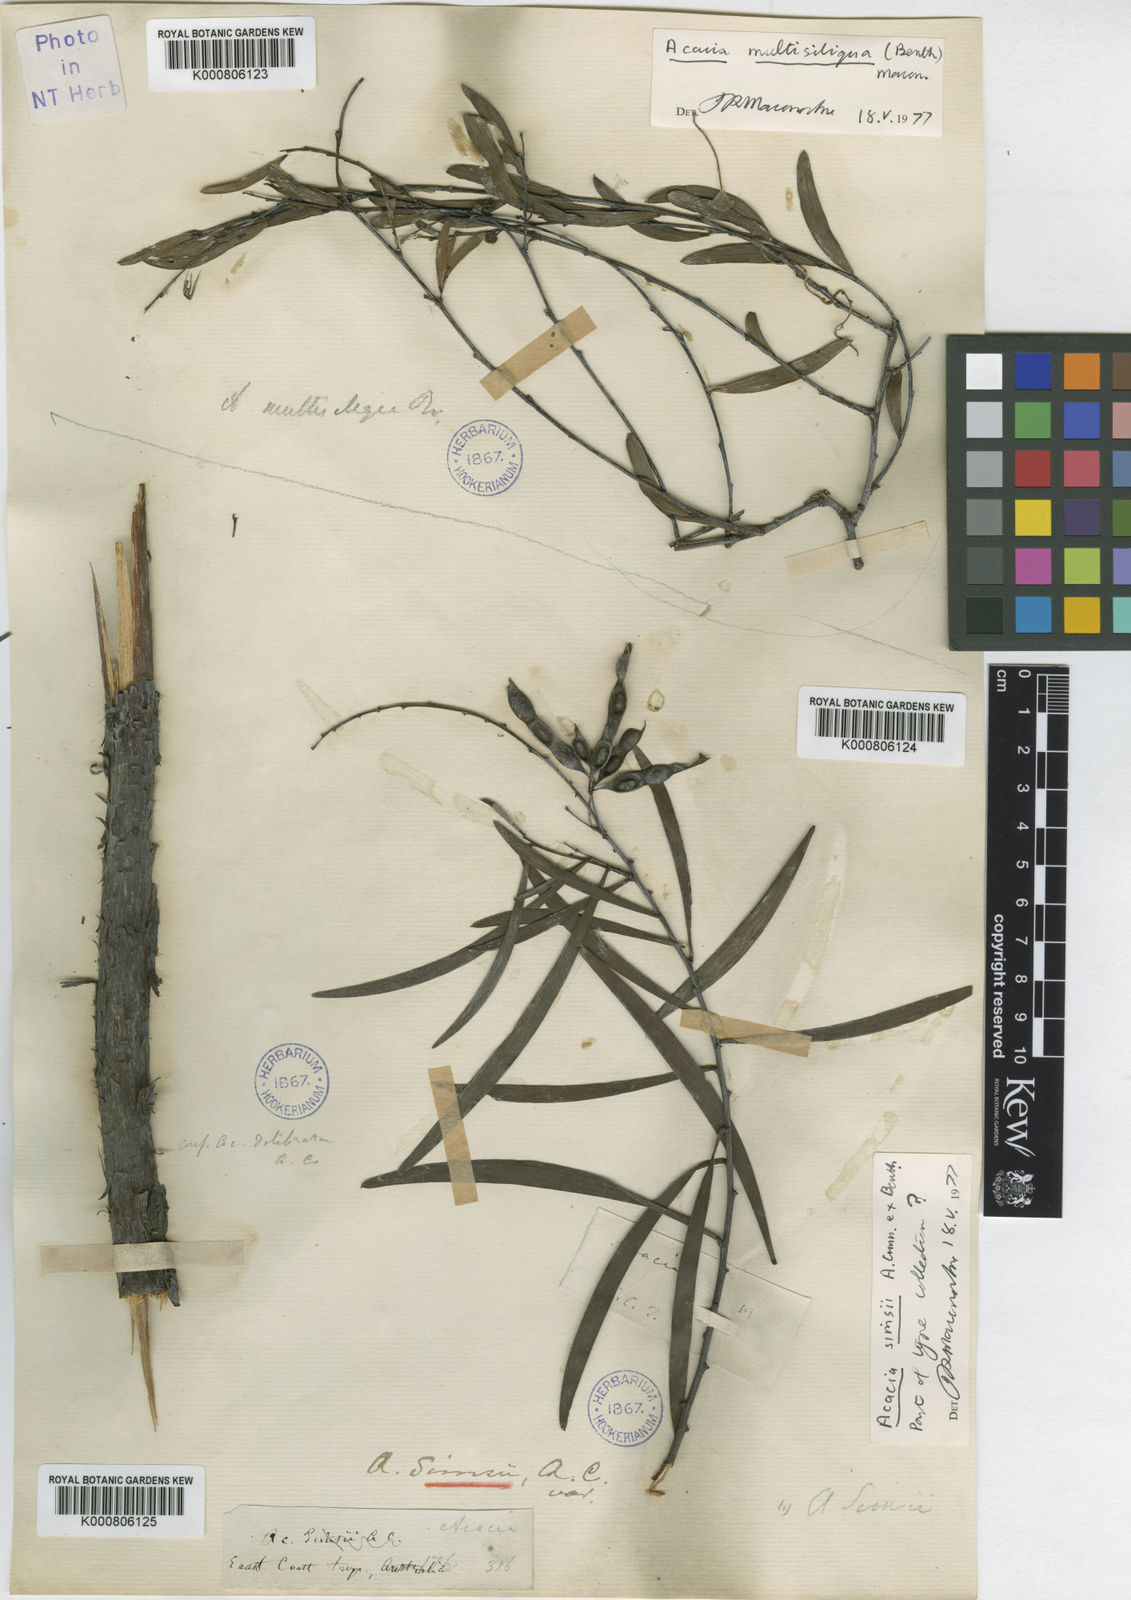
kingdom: Plantae
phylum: Tracheophyta
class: Magnoliopsida
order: Fabales
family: Fabaceae
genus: Acacia
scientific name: Acacia
